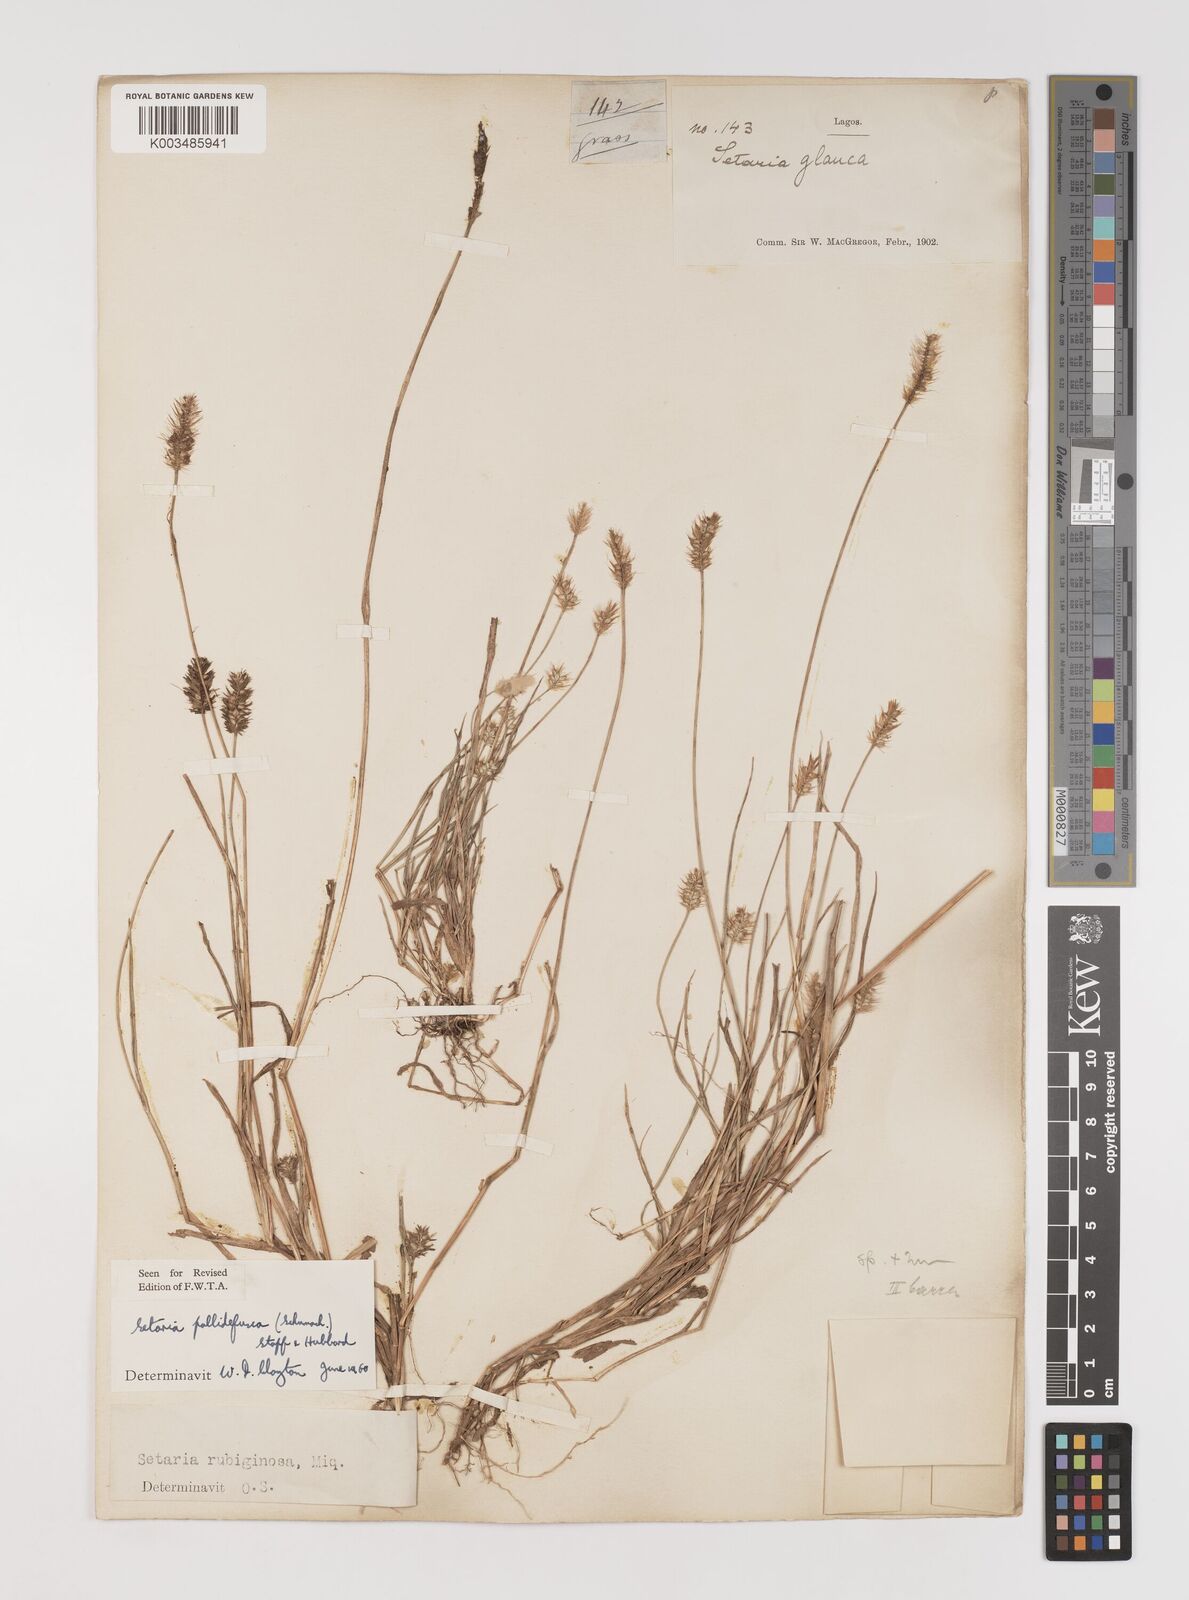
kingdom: Plantae
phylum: Tracheophyta
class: Liliopsida
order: Poales
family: Poaceae
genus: Setaria
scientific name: Setaria pumila
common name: Yellow bristle-grass
